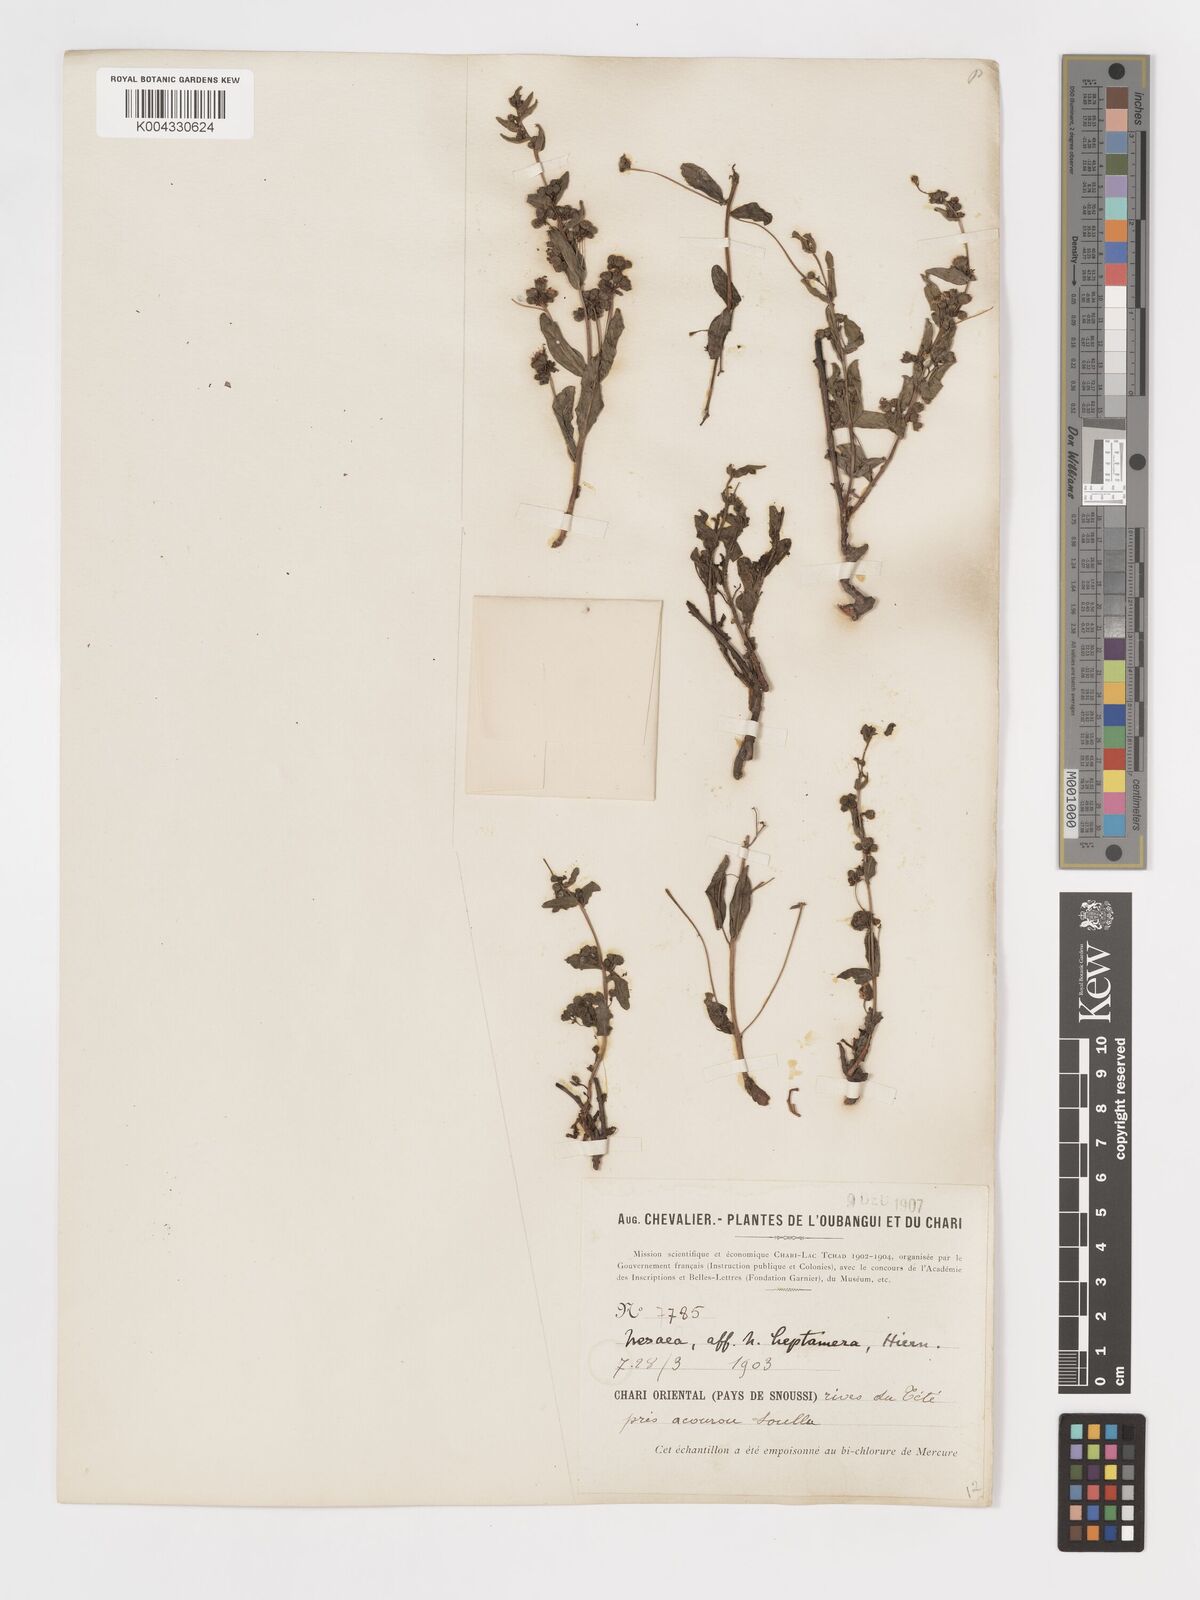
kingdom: Plantae
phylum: Tracheophyta
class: Magnoliopsida
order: Myrtales
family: Lythraceae
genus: Nesaea
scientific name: Nesaea
